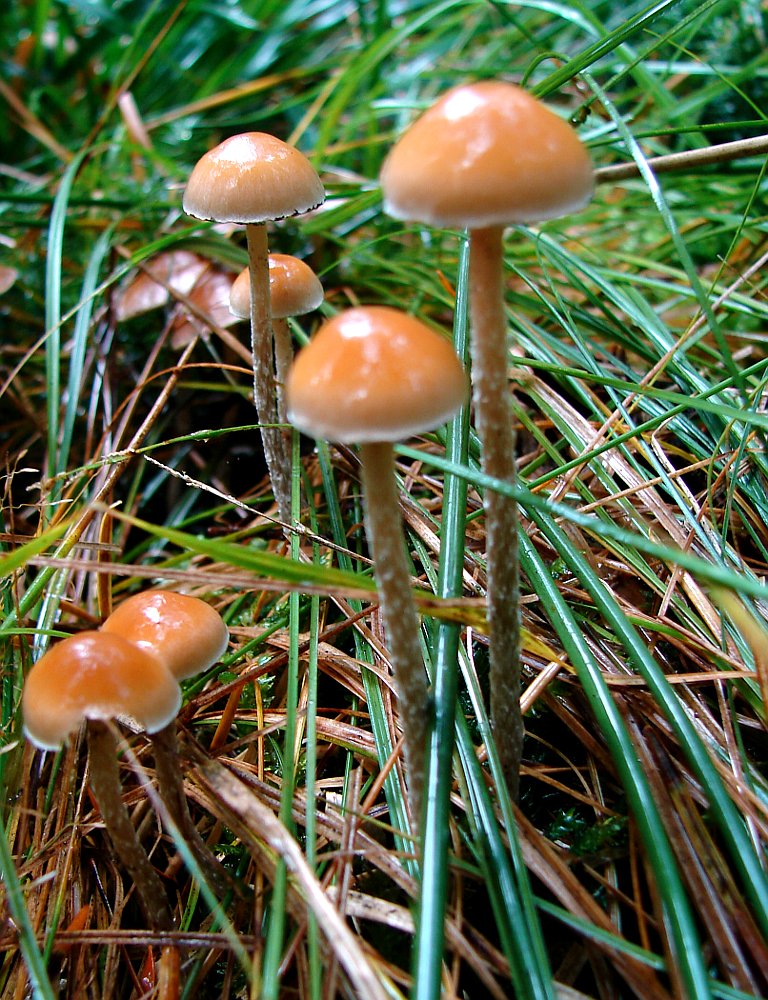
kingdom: Fungi
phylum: Basidiomycota
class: Agaricomycetes
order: Agaricales
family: Strophariaceae
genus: Hypholoma
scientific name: Hypholoma marginatum
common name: enlig svovlhat
